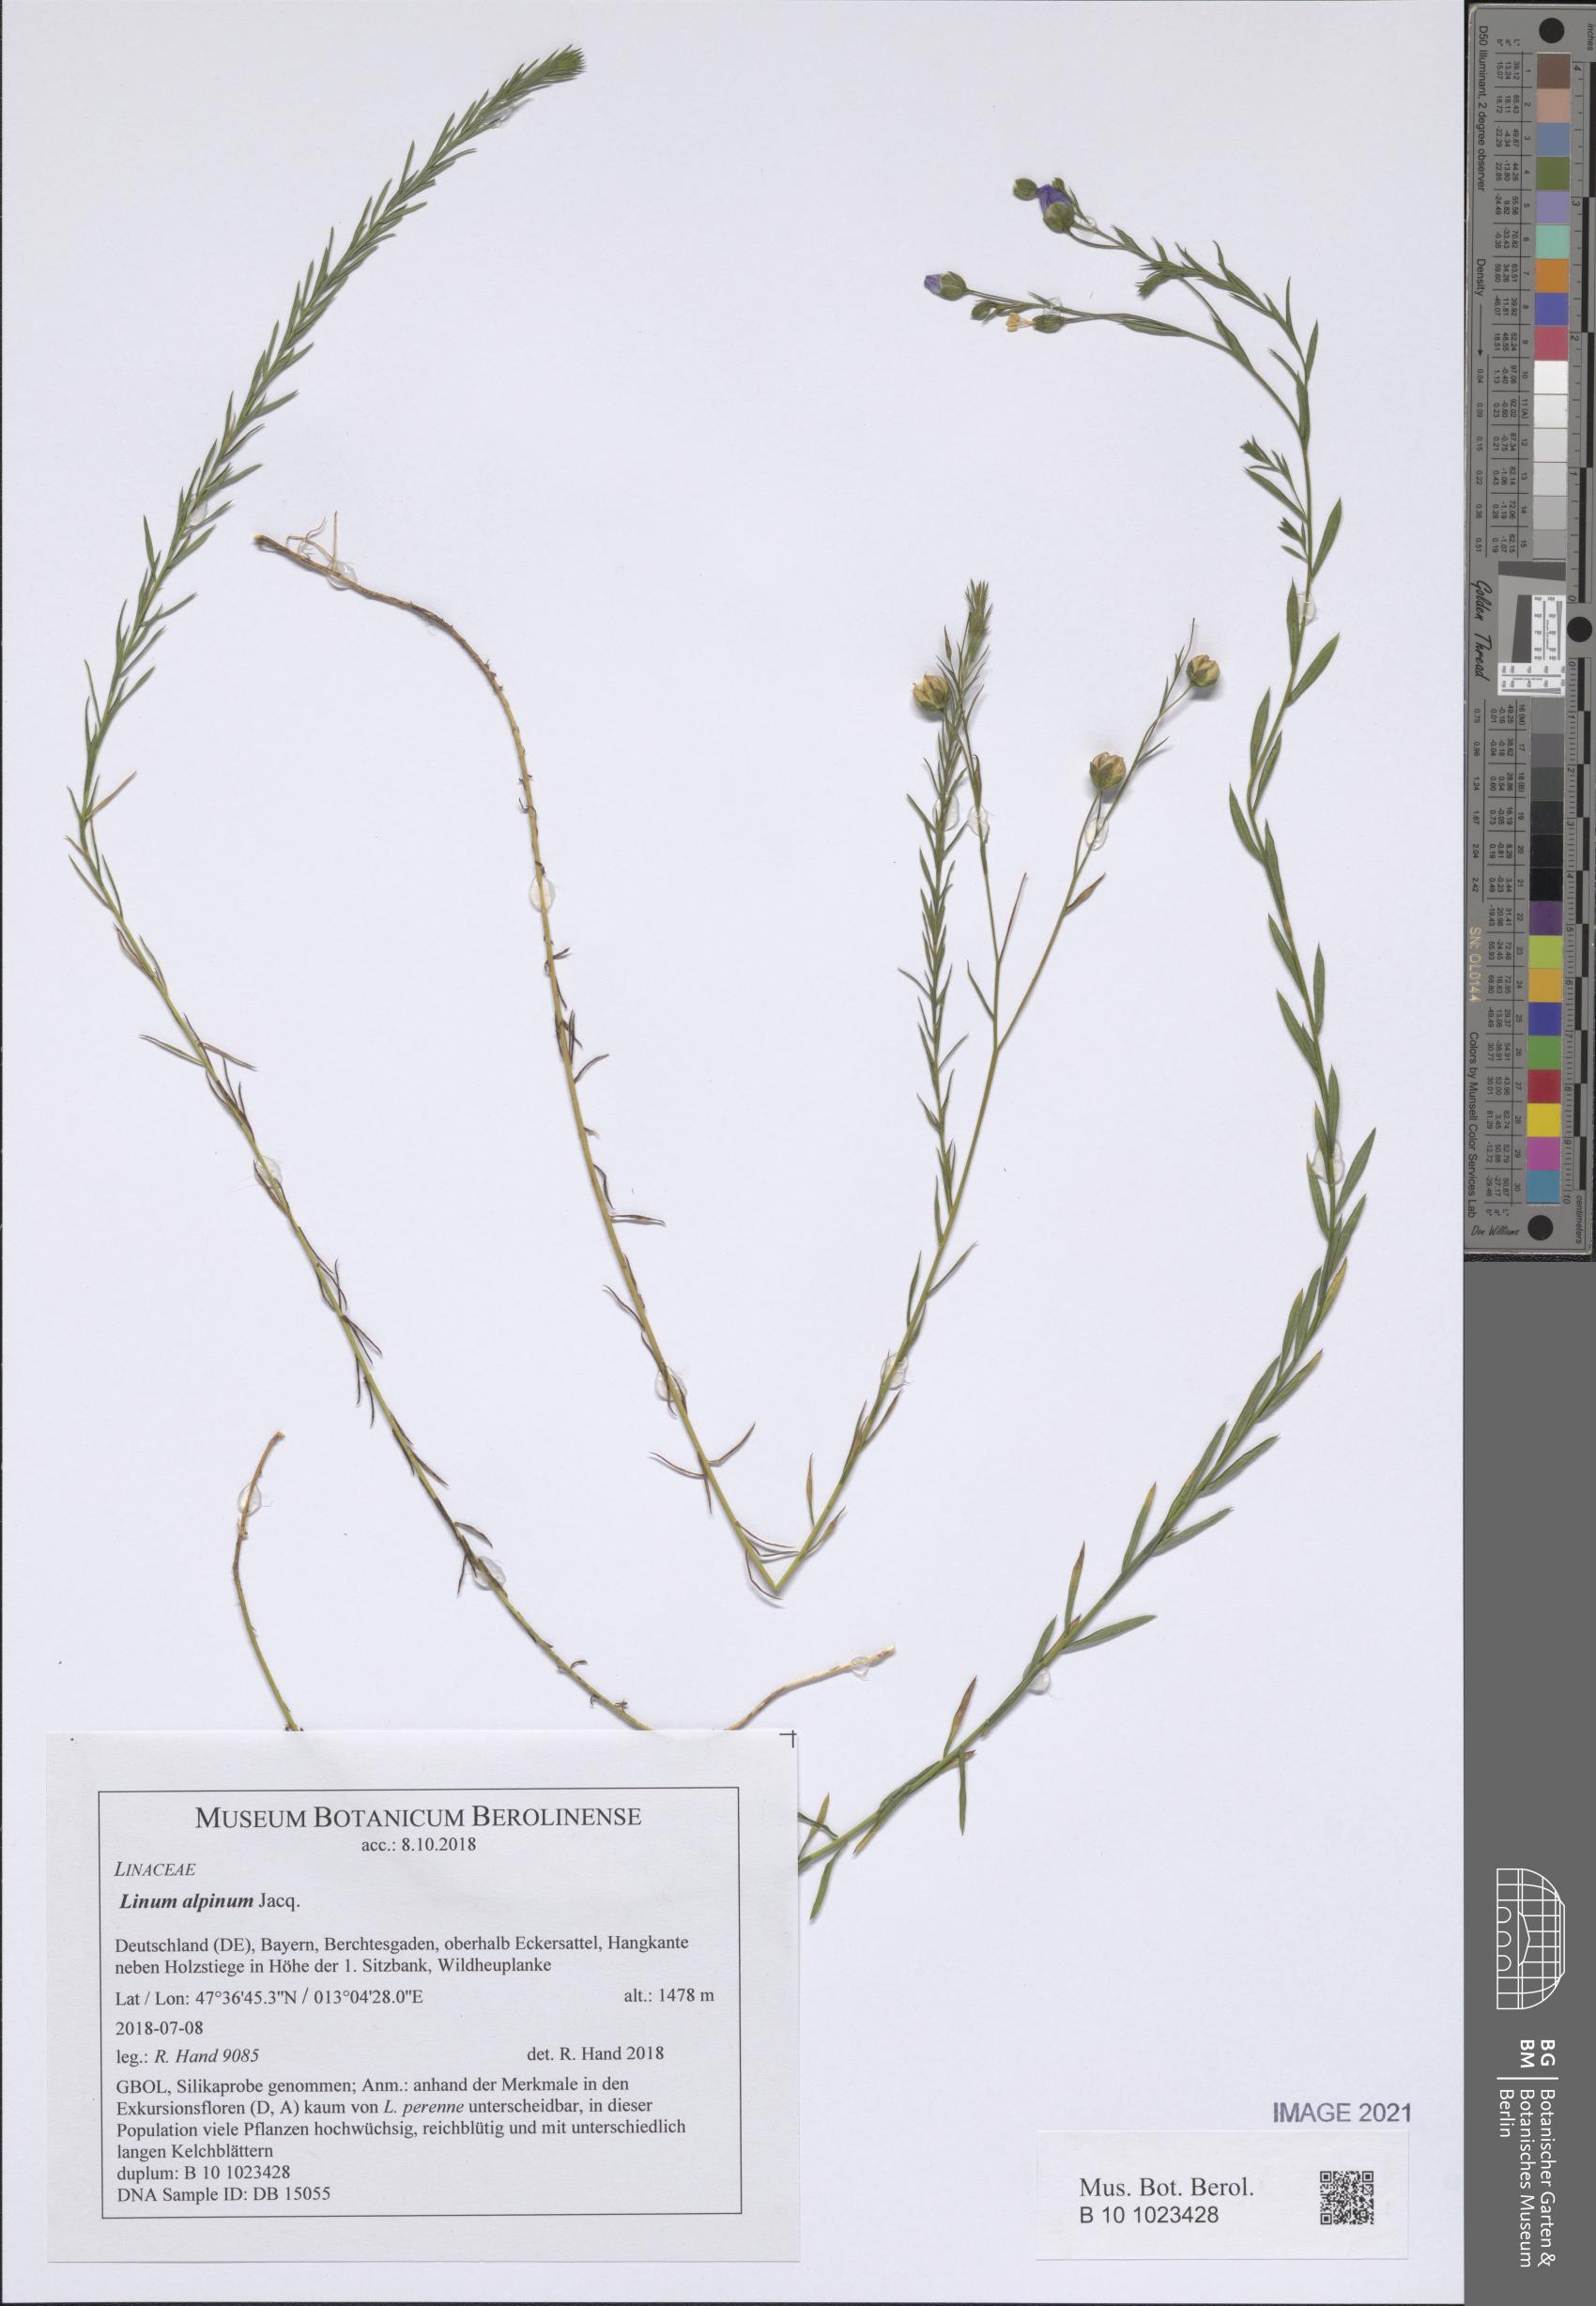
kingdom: Plantae
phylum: Tracheophyta
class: Magnoliopsida
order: Malpighiales
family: Linaceae
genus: Linum
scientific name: Linum alpinum
